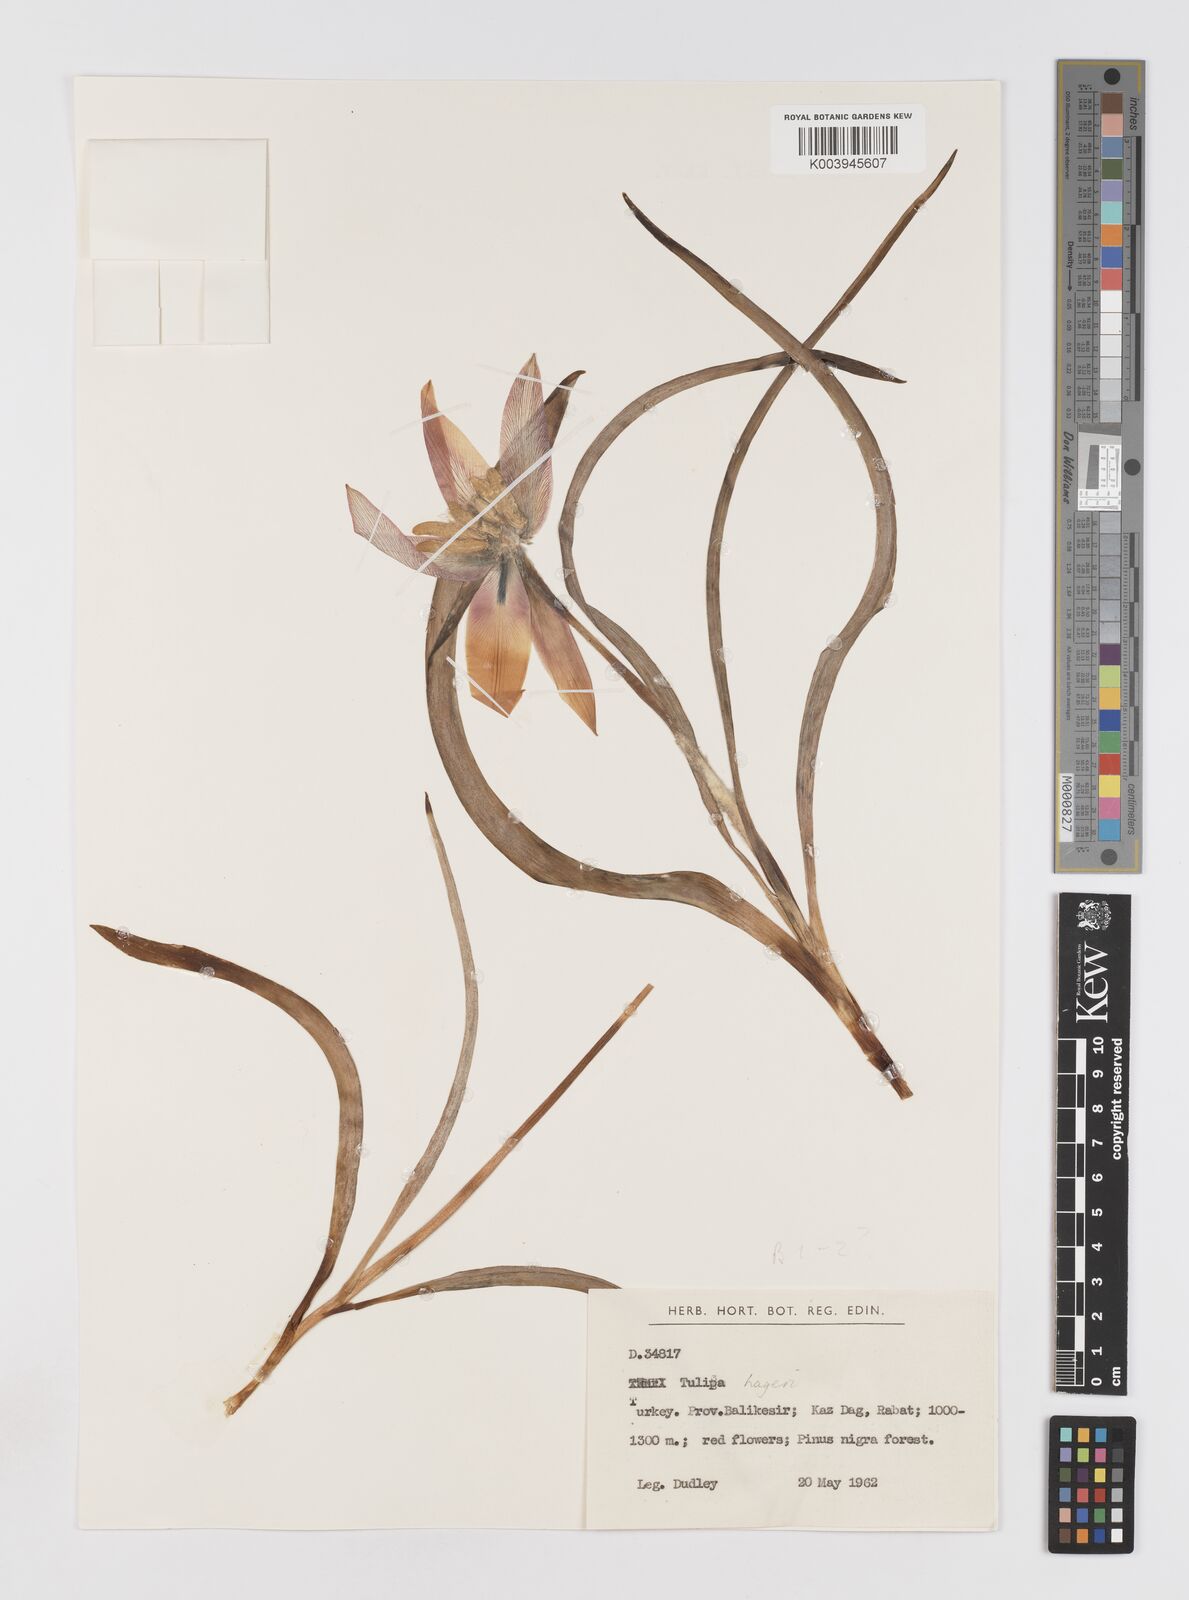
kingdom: Plantae
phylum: Tracheophyta
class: Liliopsida
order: Liliales
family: Liliaceae
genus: Tulipa
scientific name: Tulipa orphanidea
